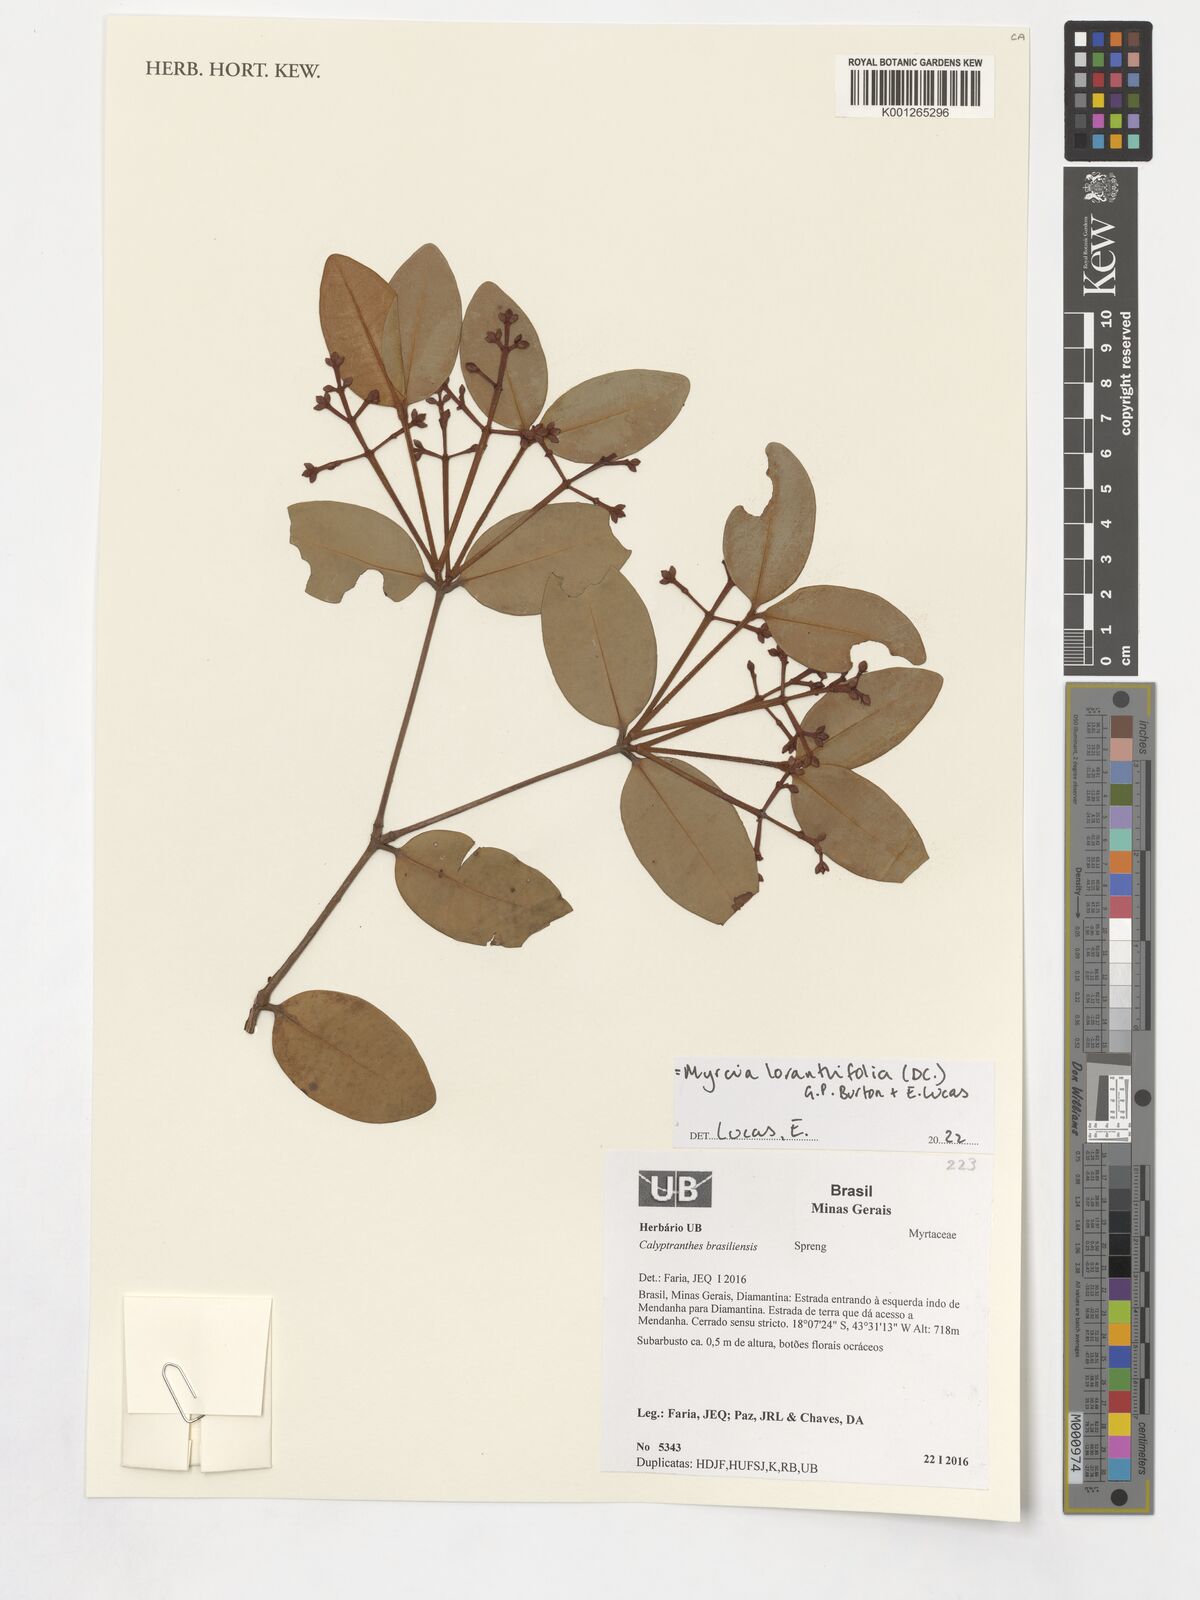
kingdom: Plantae
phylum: Tracheophyta
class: Magnoliopsida
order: Myrtales
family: Myrtaceae
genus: Myrcia
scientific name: Myrcia neobrasiliensis
